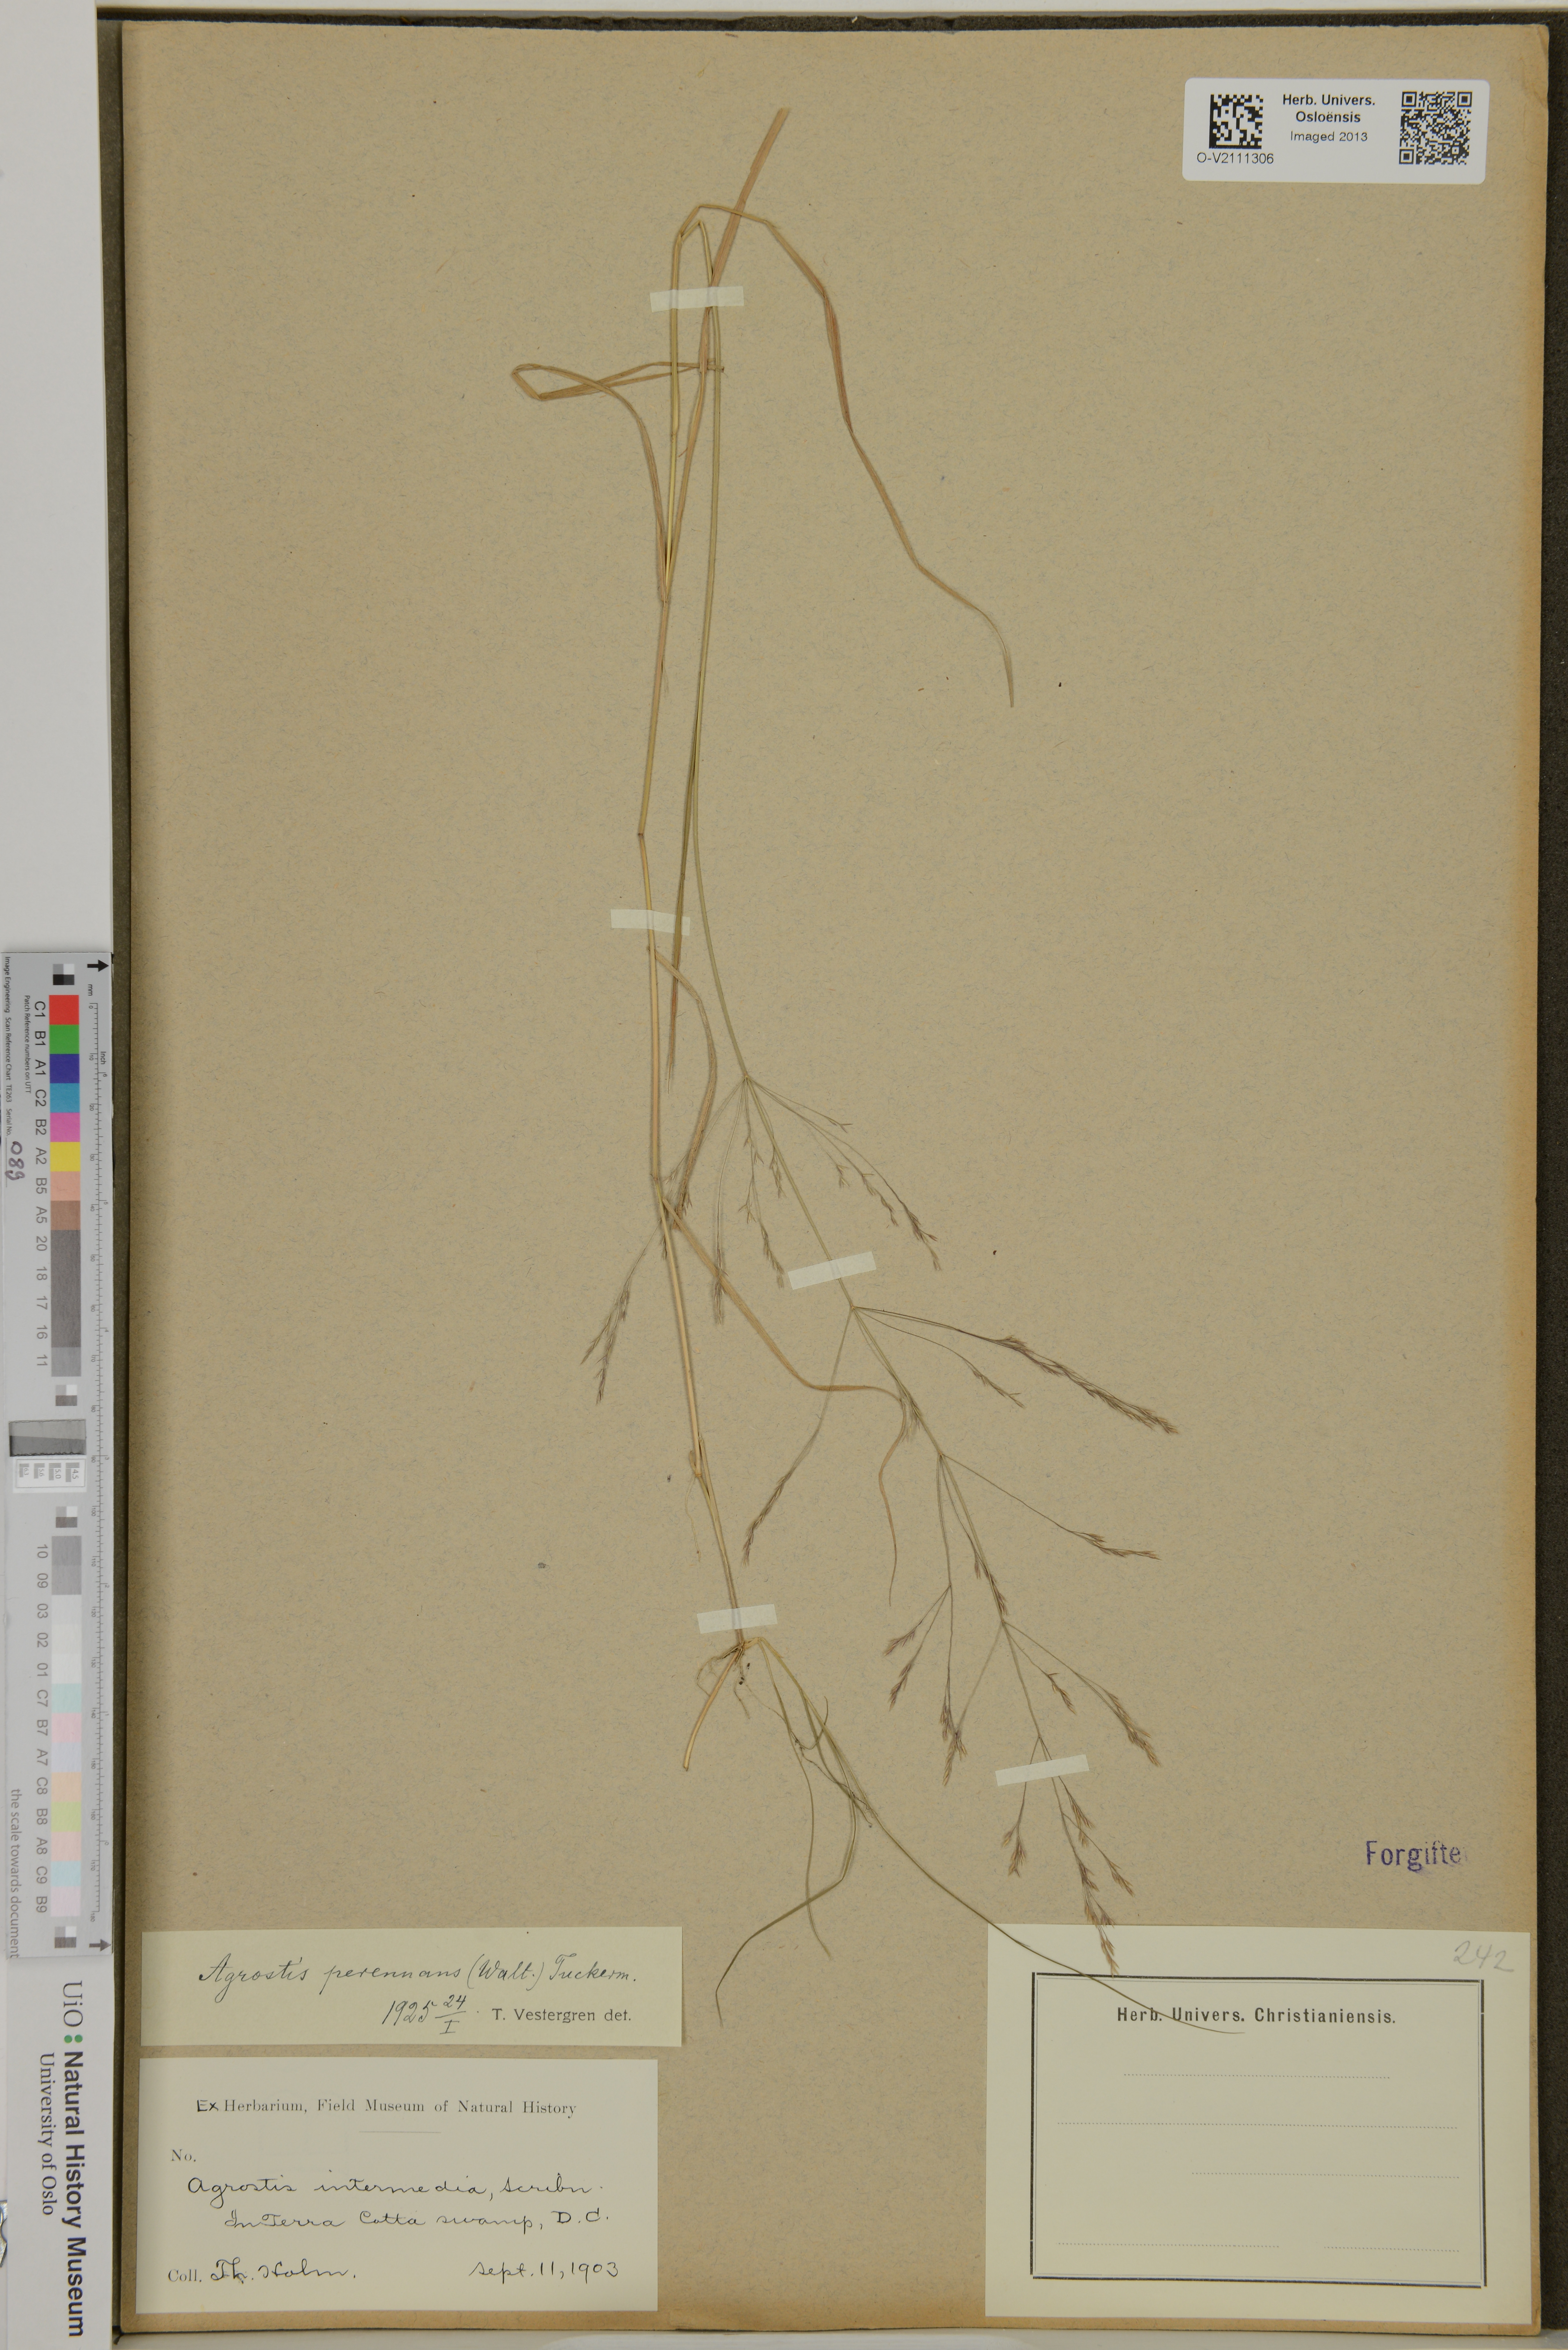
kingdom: Plantae
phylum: Tracheophyta
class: Liliopsida
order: Poales
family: Poaceae
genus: Agrostis
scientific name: Agrostis perennans
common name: Autumn bent
